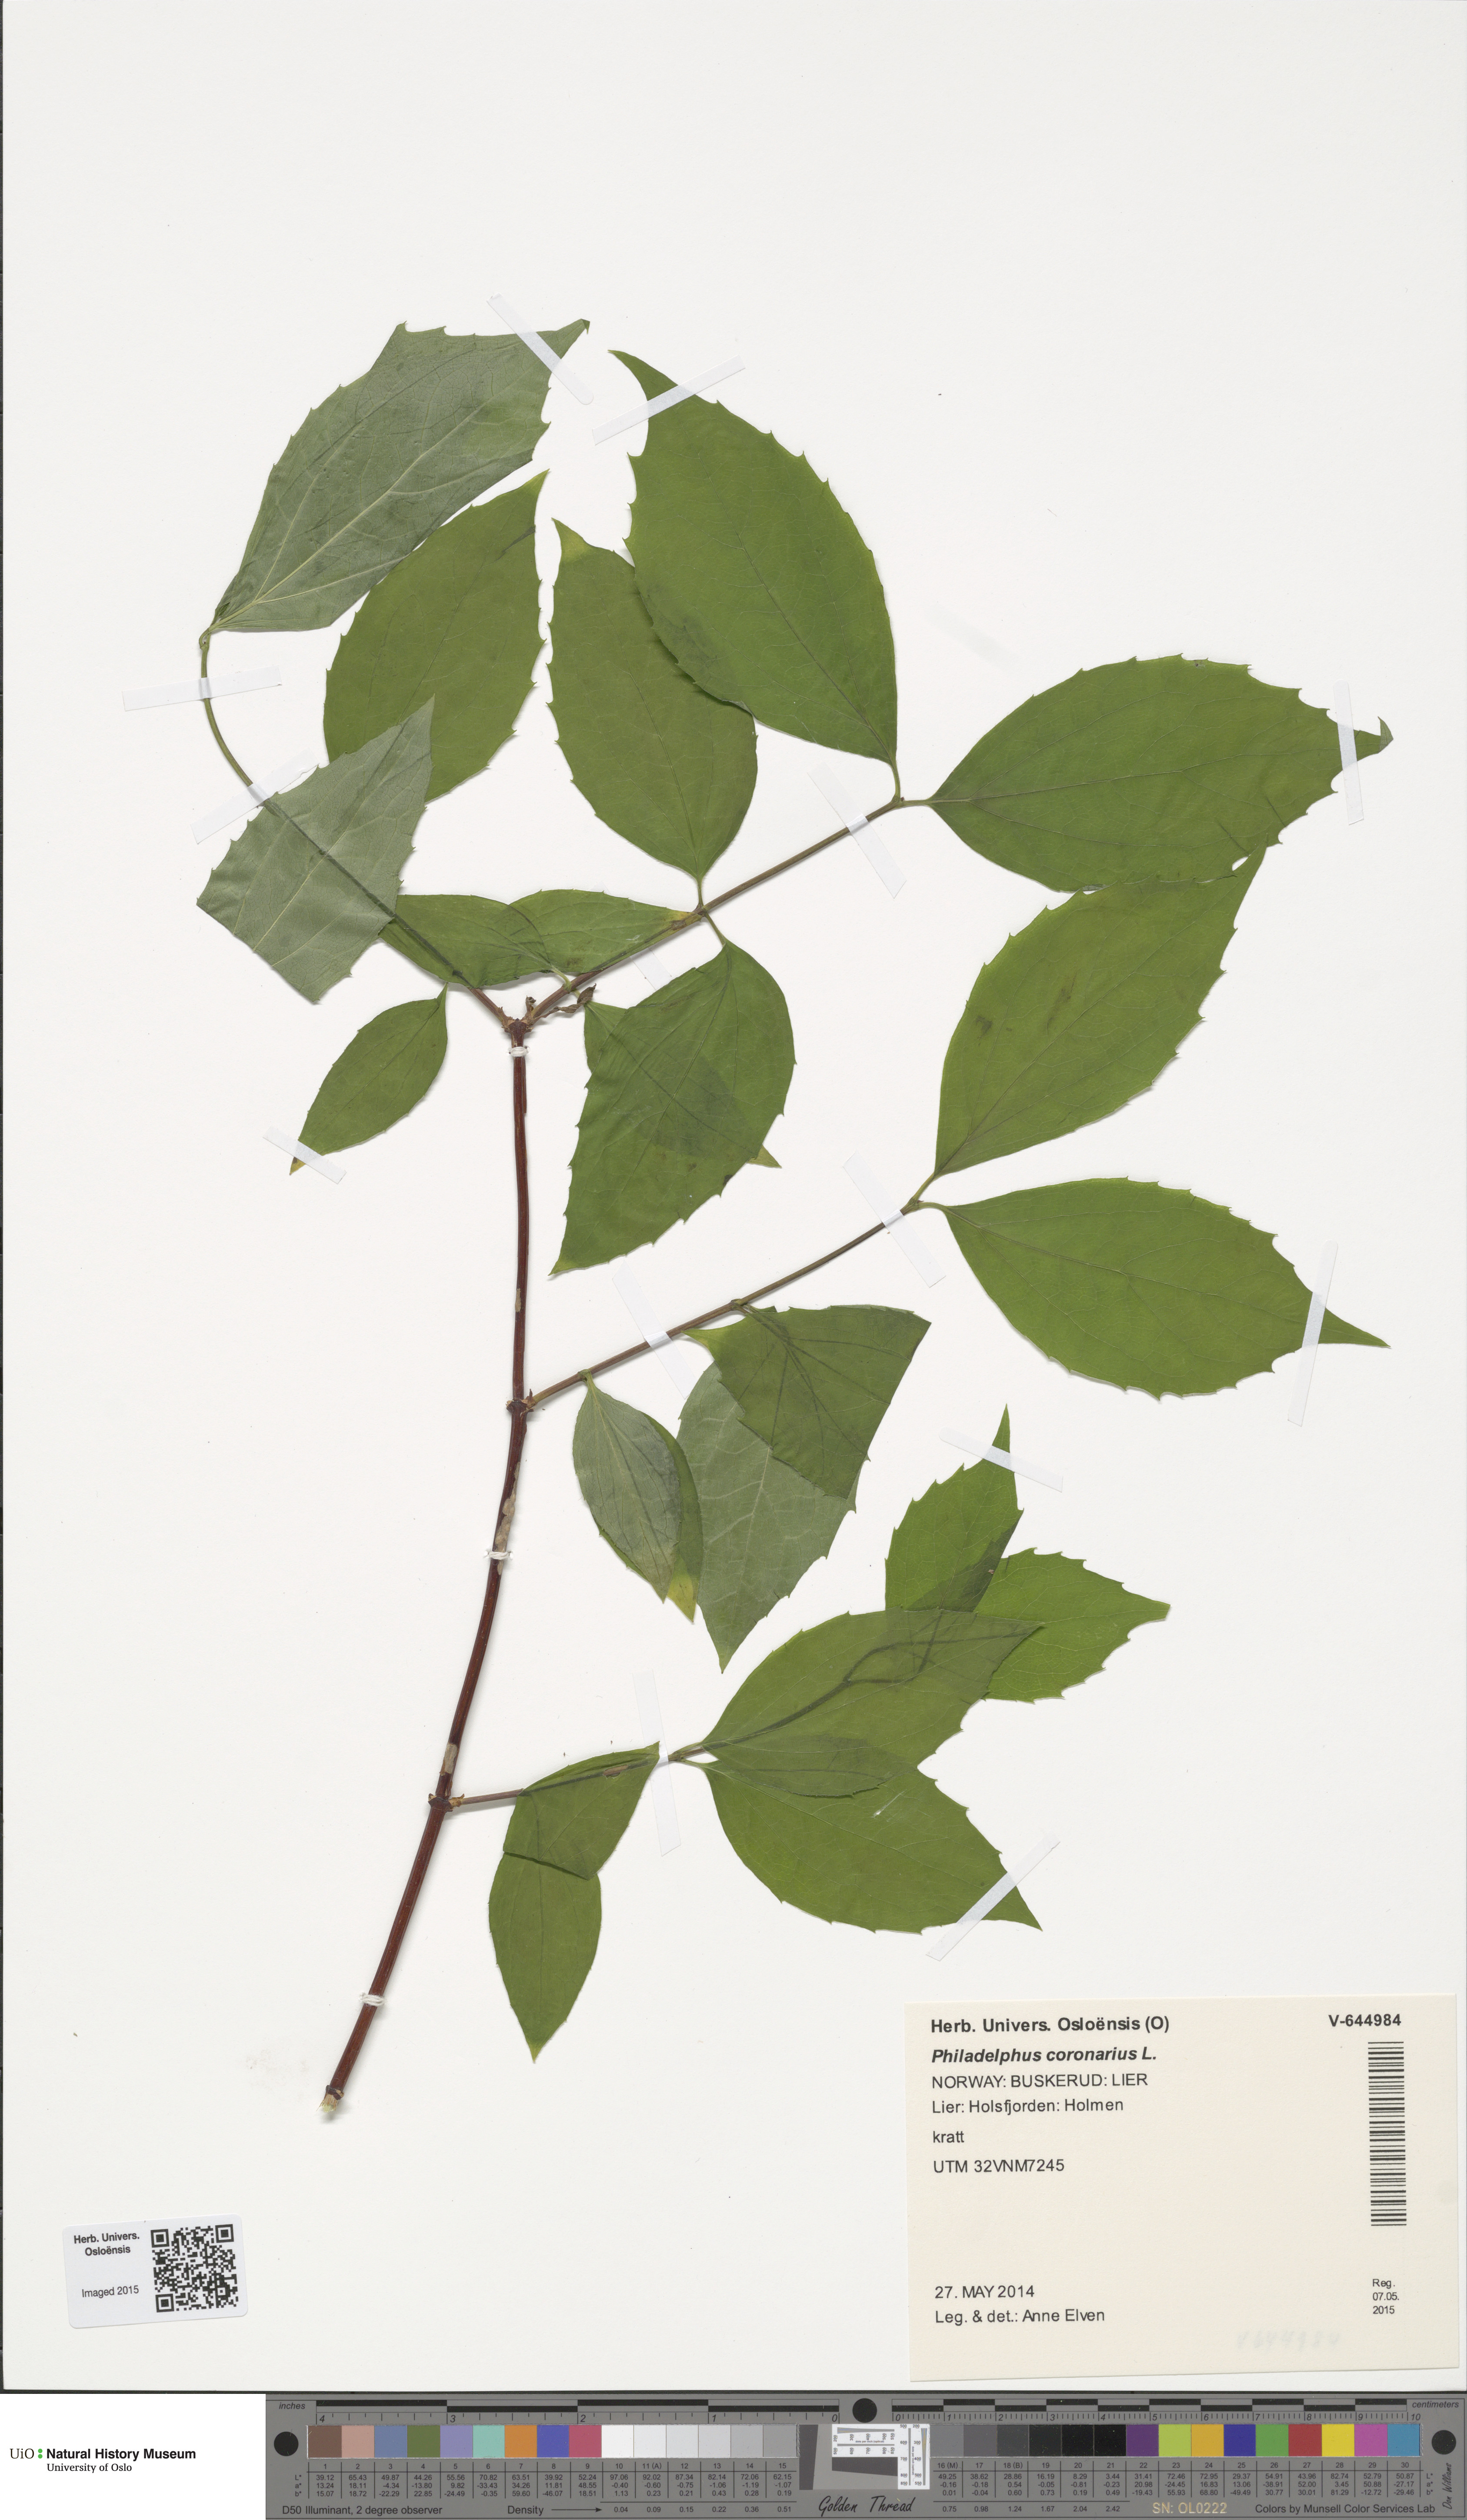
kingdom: Plantae
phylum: Tracheophyta
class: Magnoliopsida
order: Cornales
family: Hydrangeaceae
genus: Philadelphus
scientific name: Philadelphus coronarius
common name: Mock orange
